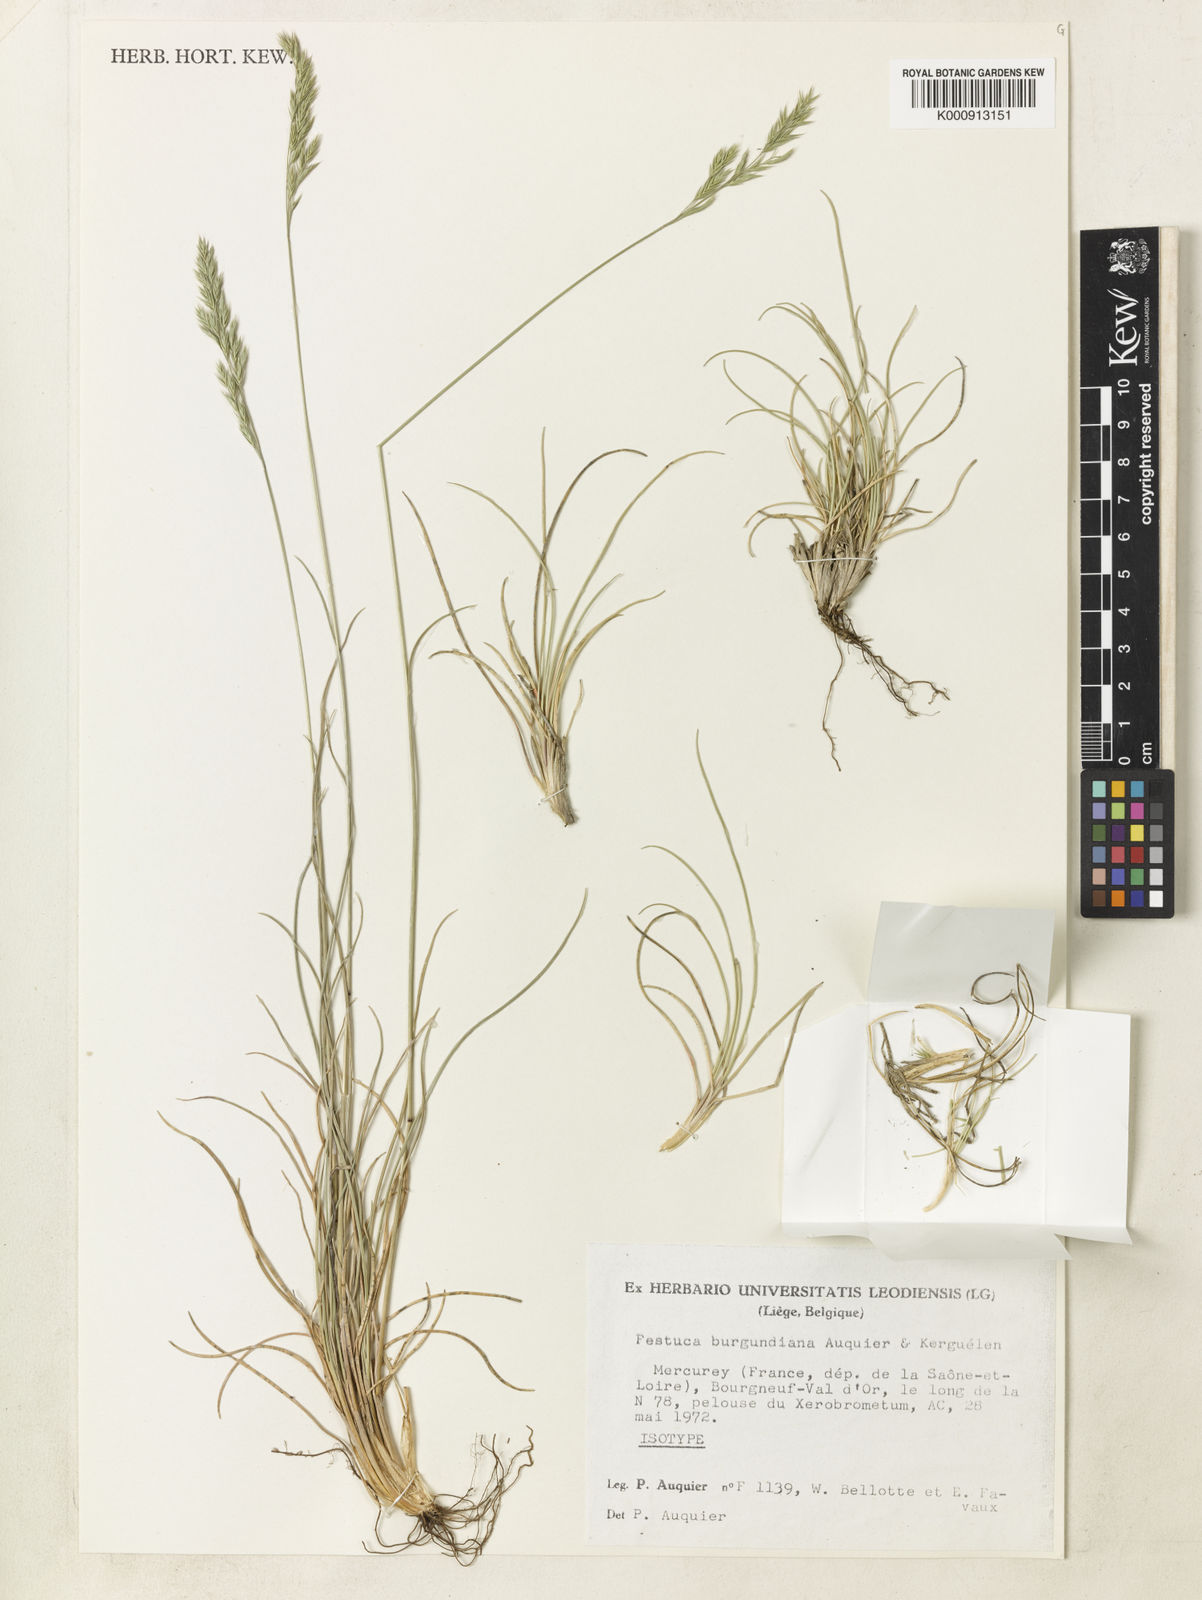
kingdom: Plantae
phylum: Tracheophyta
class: Liliopsida
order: Poales
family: Poaceae
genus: Festuca
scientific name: Festuca
